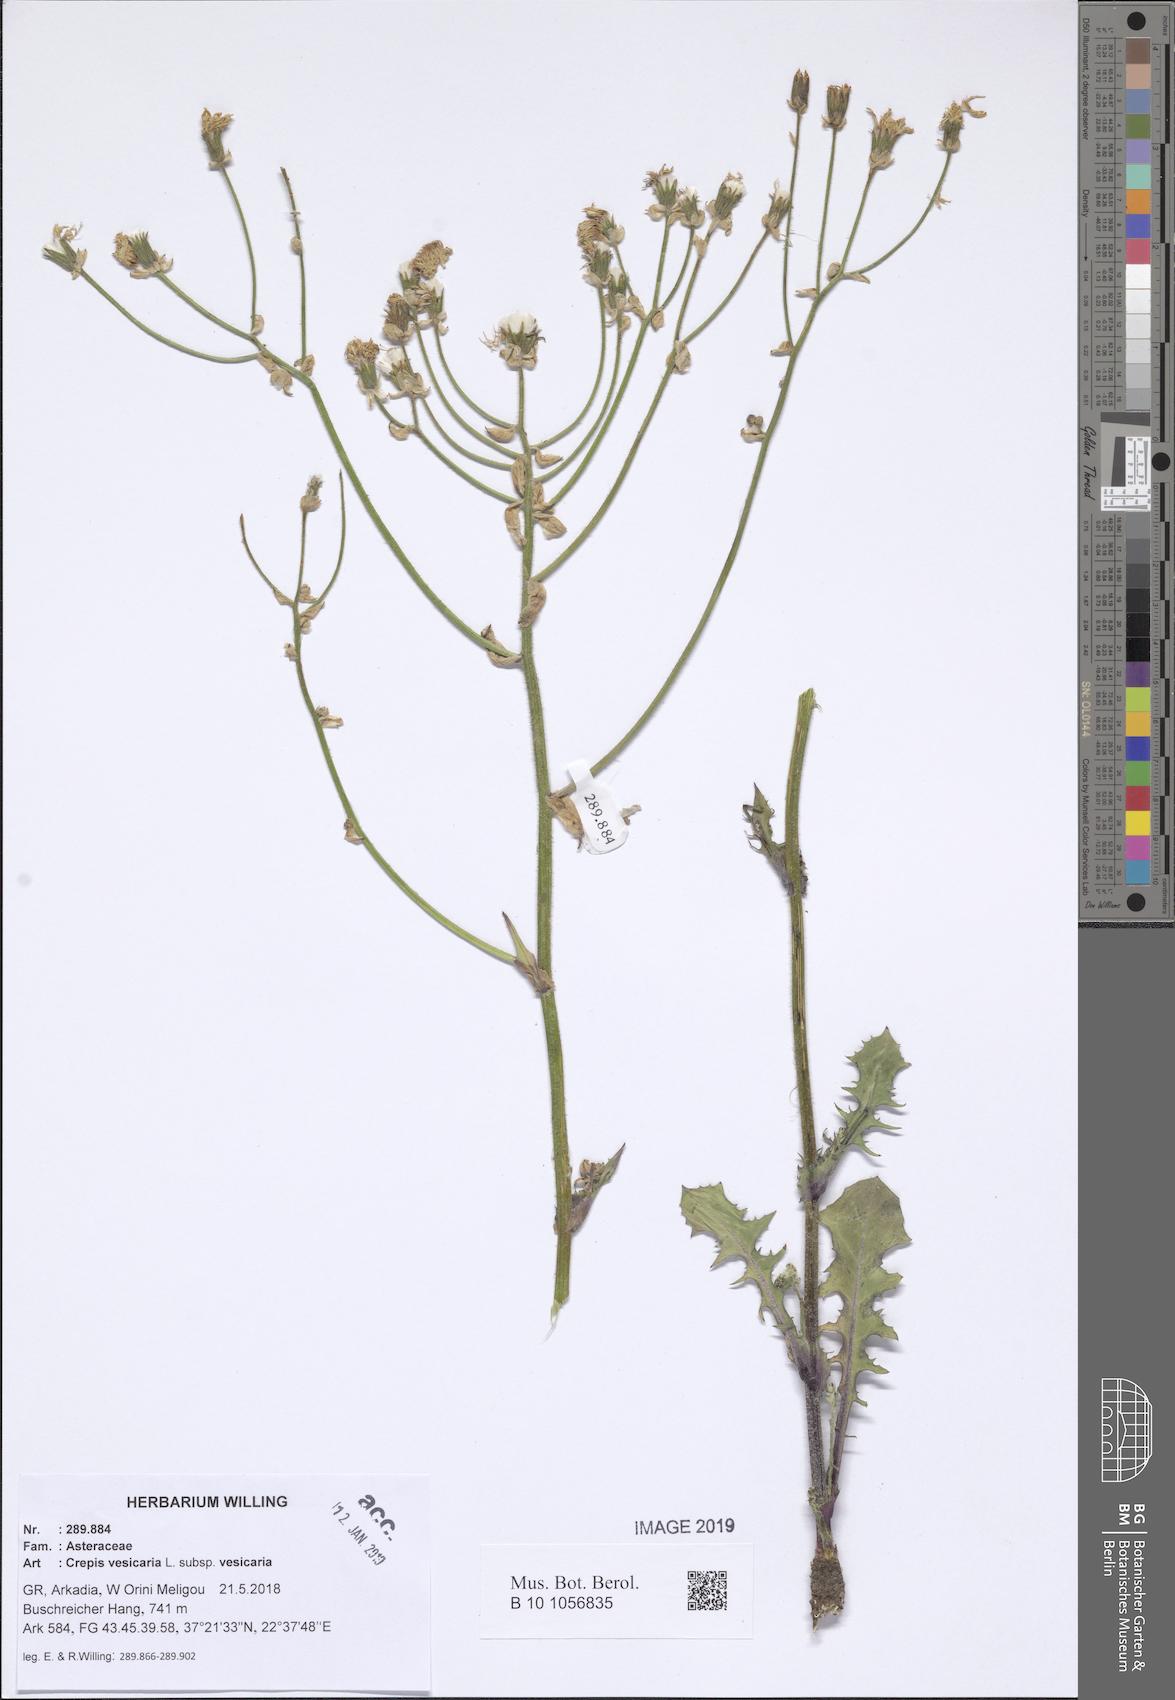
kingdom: Plantae
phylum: Tracheophyta
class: Magnoliopsida
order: Asterales
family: Asteraceae
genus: Crepis
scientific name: Crepis vesicaria
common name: Beaked hawksbeard
